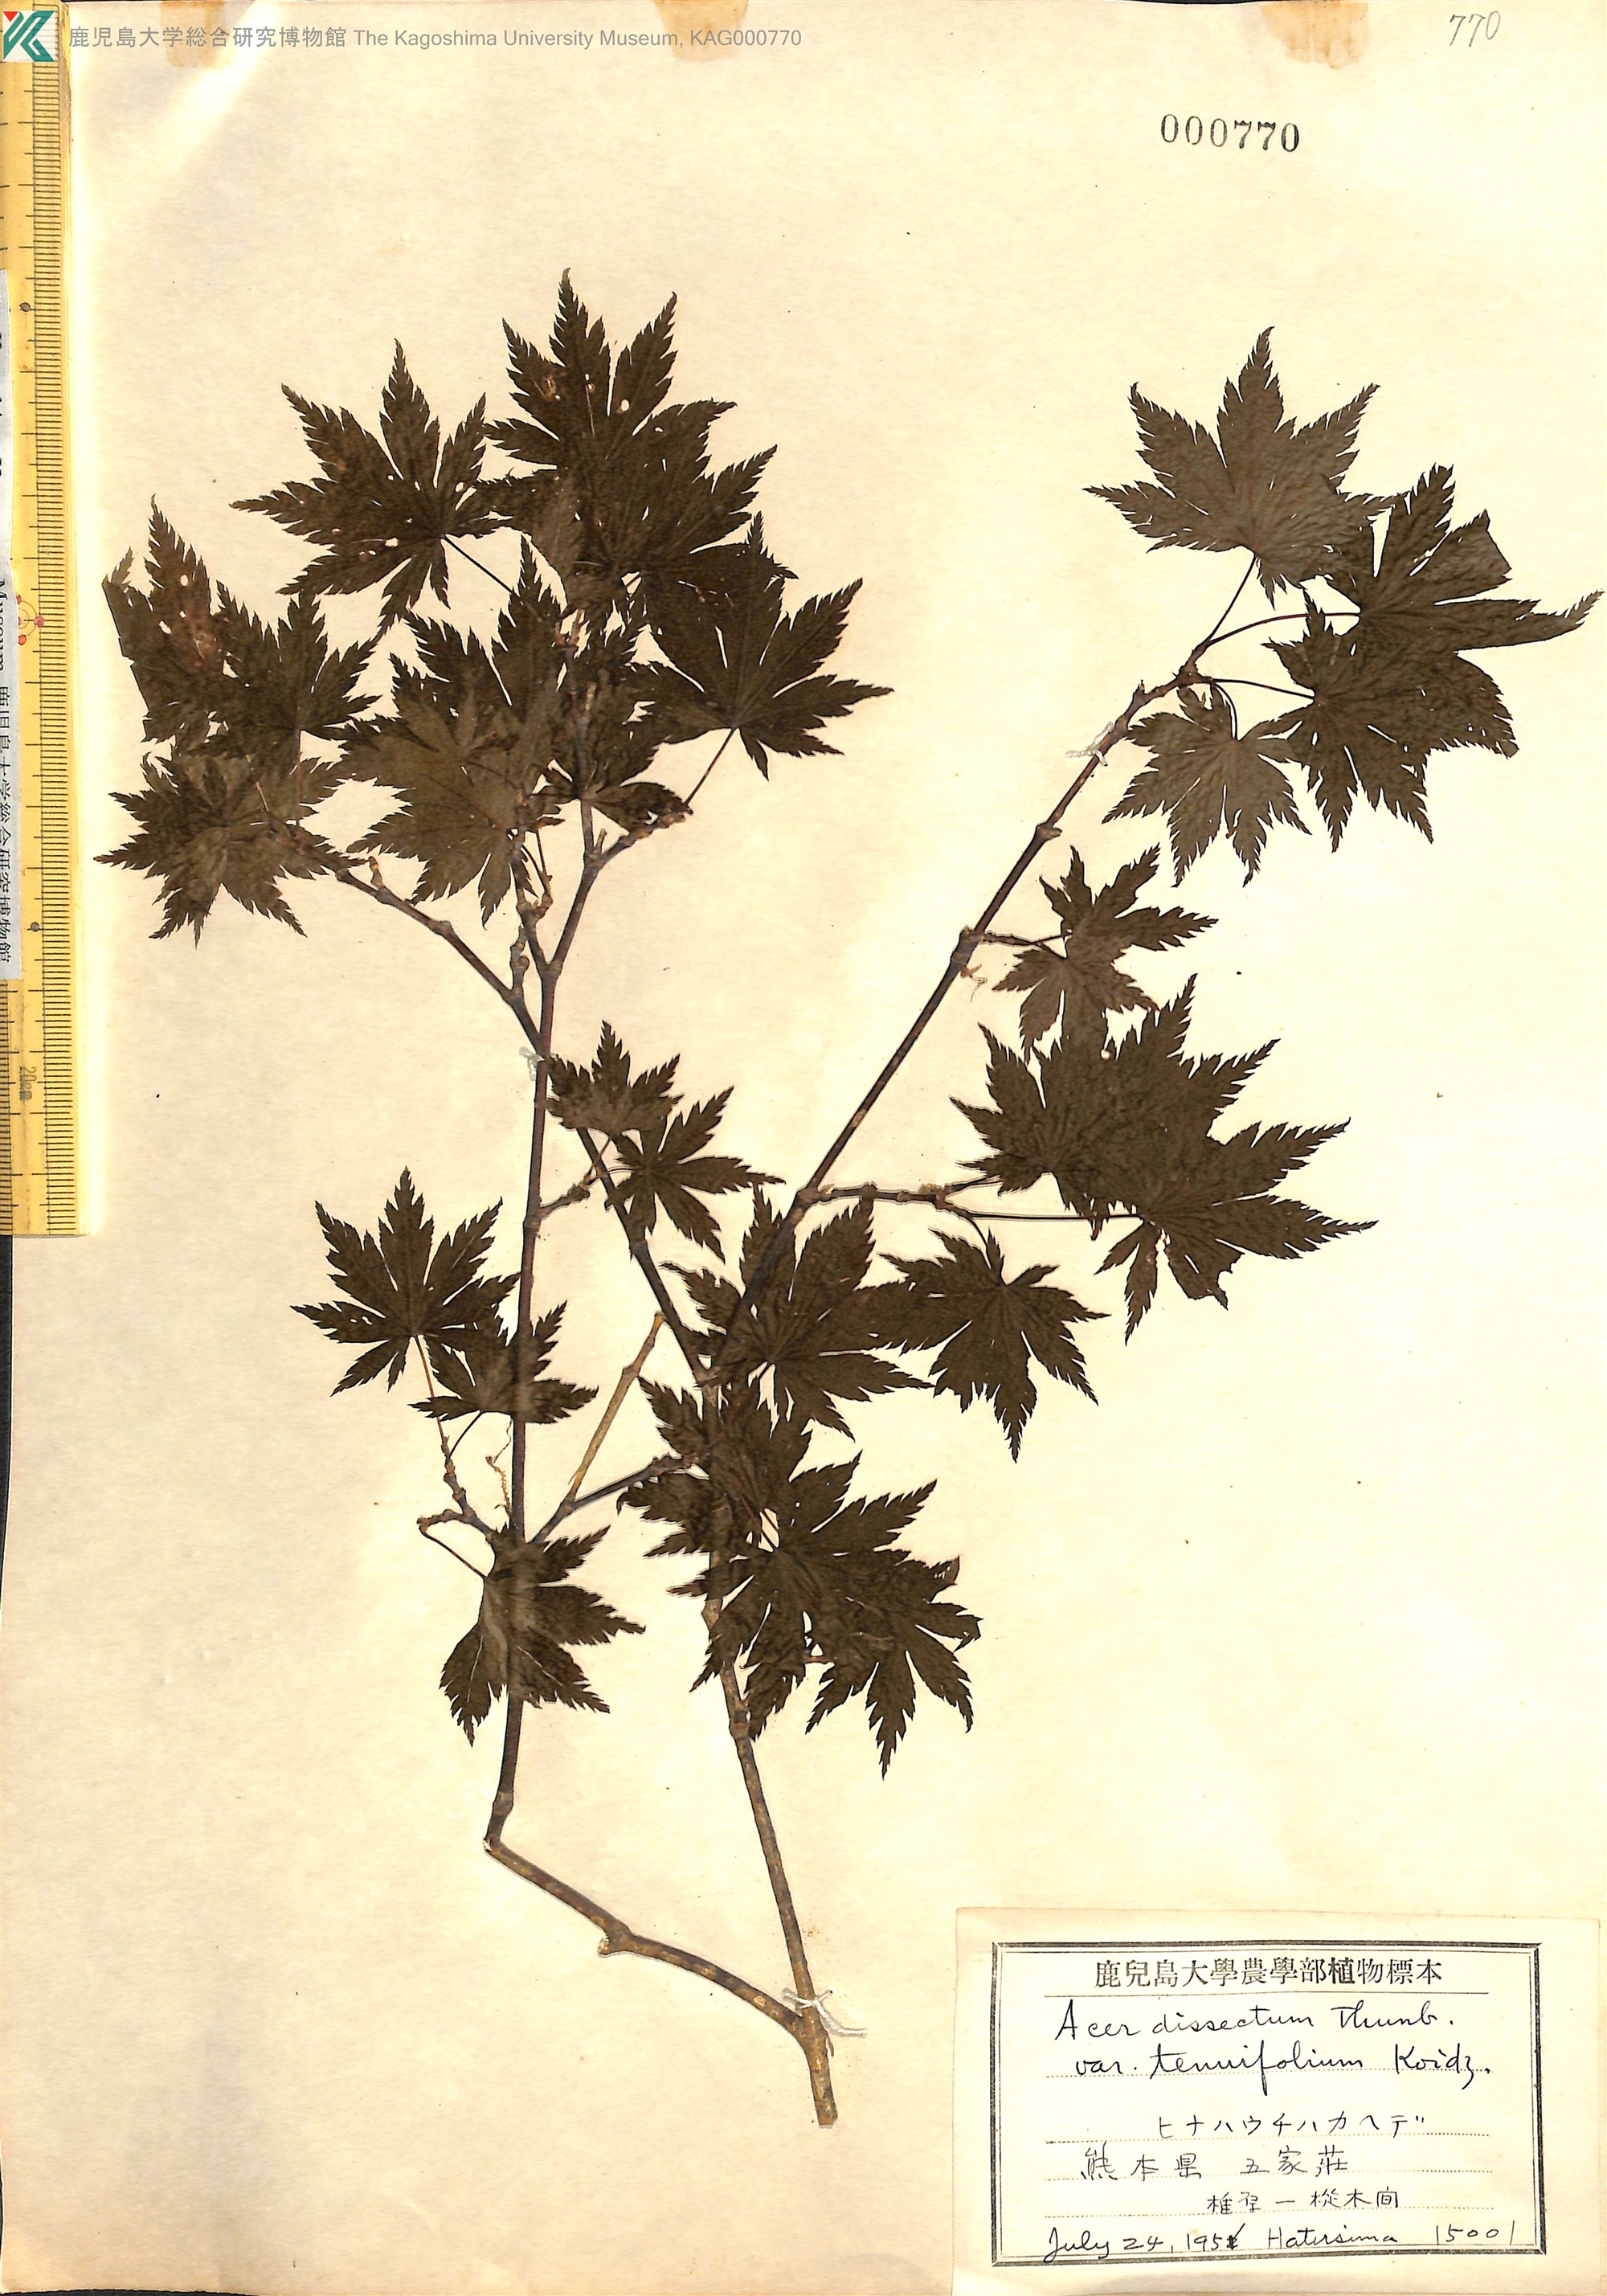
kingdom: Plantae
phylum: Tracheophyta
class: Magnoliopsida
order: Sapindales
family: Sapindaceae
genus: Acer
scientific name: Acer shirasawanum
